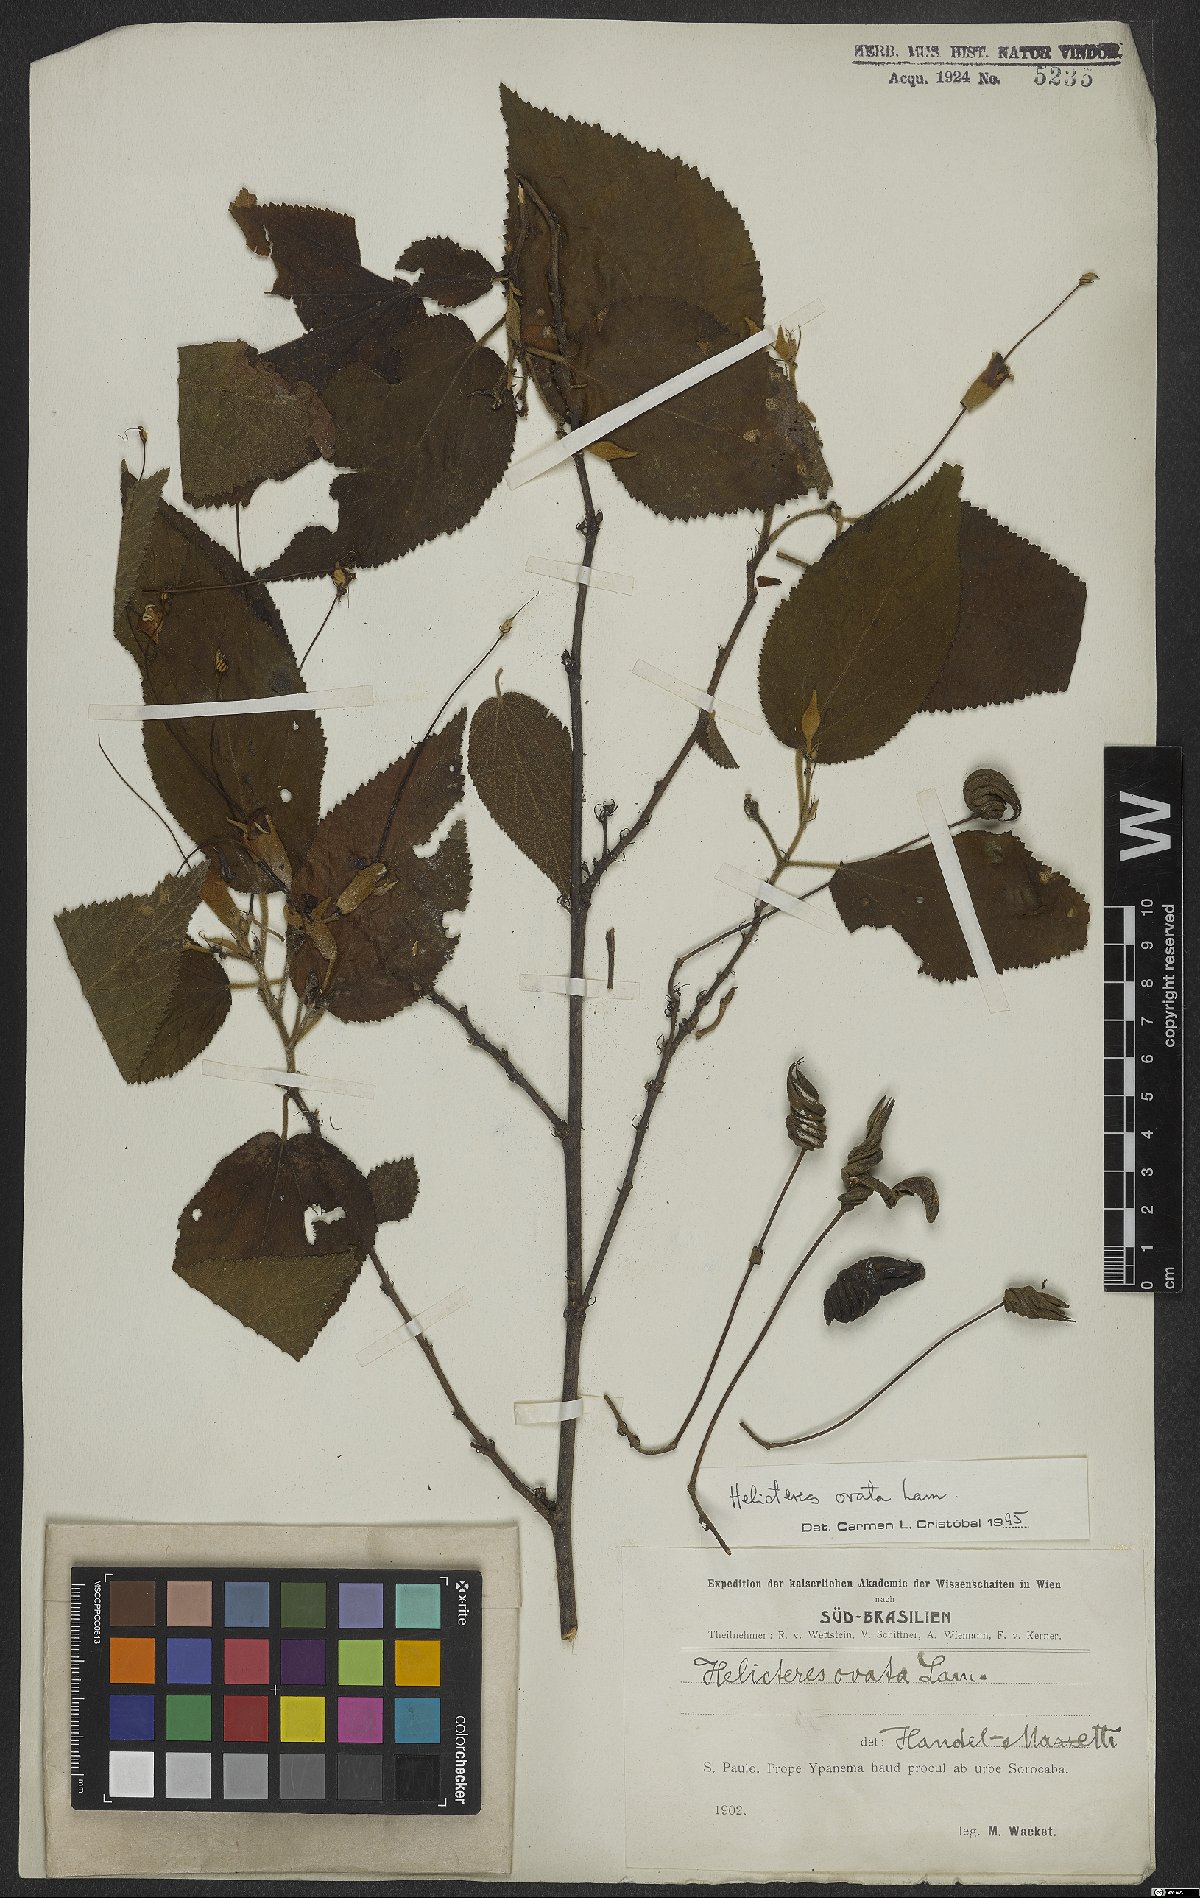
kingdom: Plantae
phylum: Tracheophyta
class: Magnoliopsida
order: Malvales
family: Malvaceae
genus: Helicteres
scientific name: Helicteres ovata
